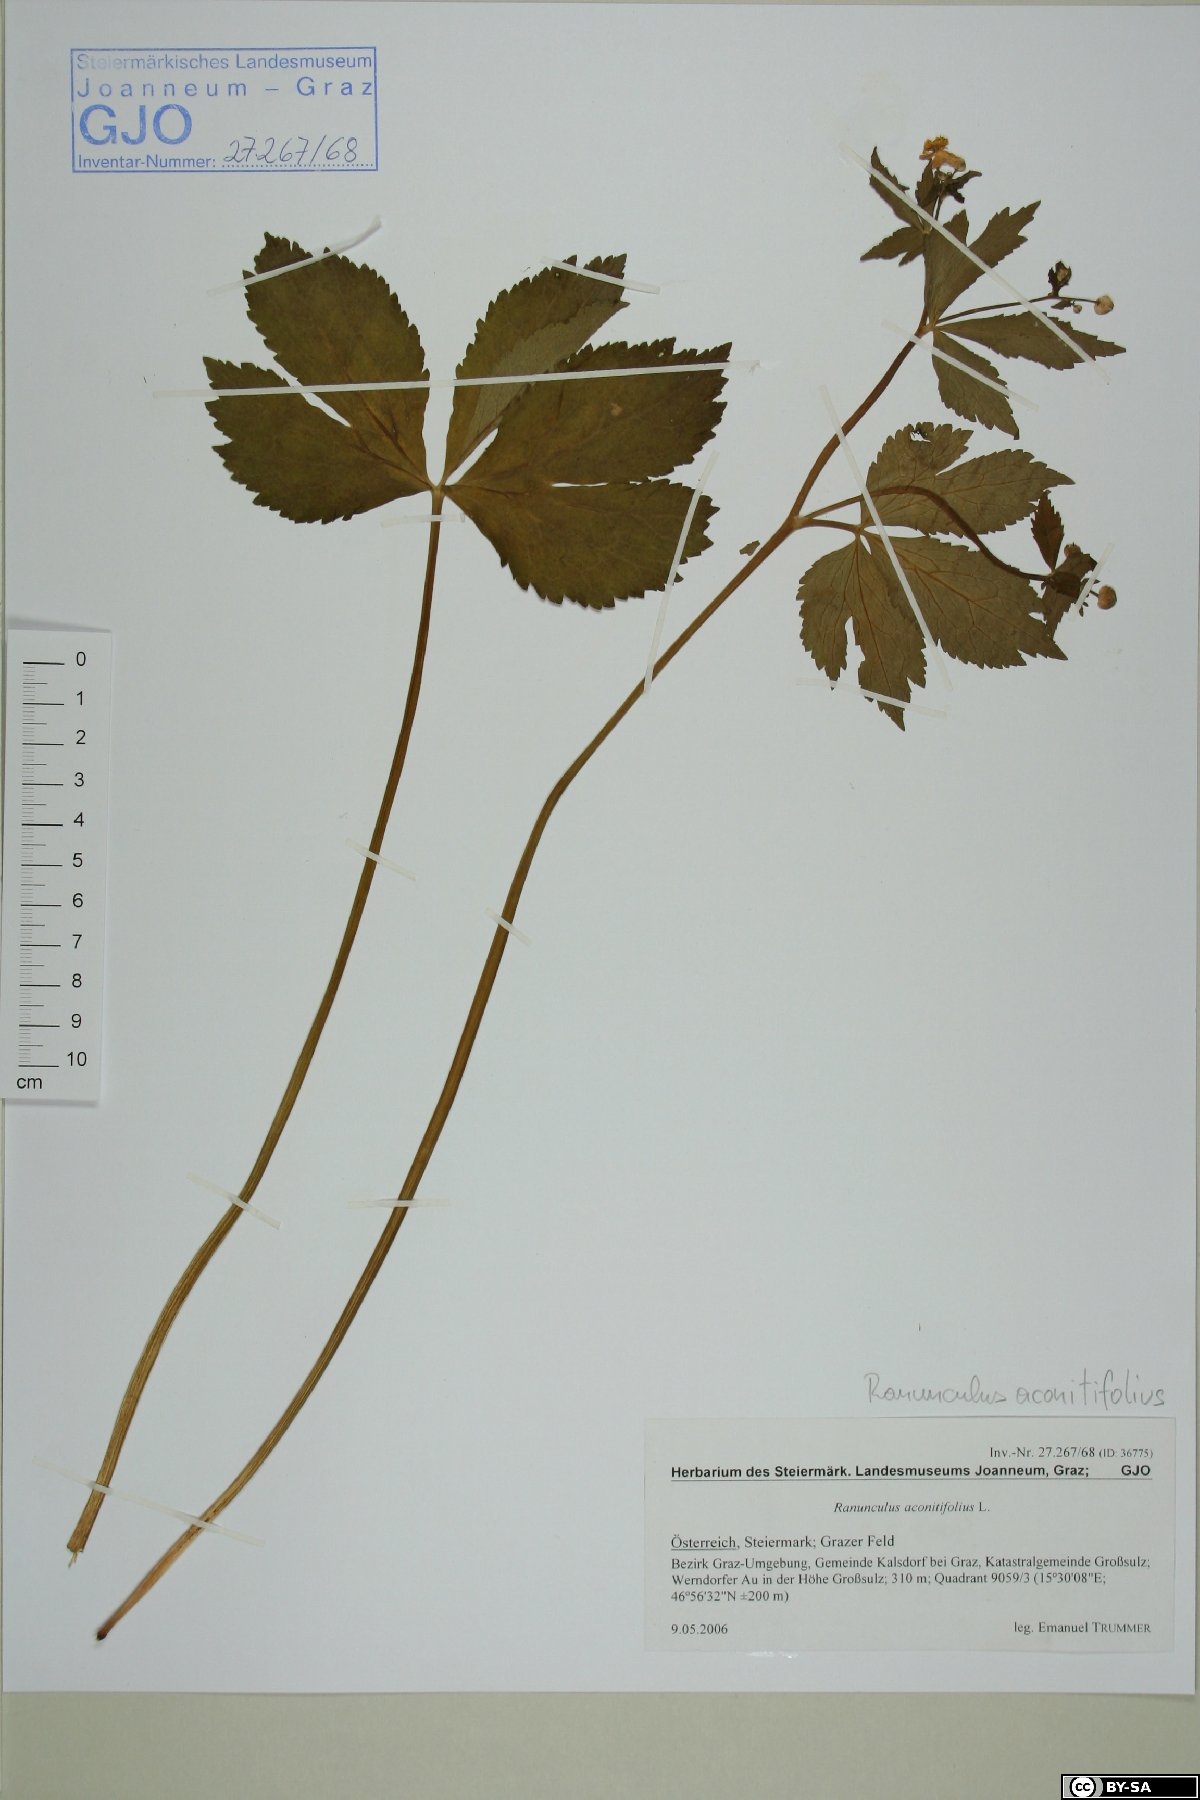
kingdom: Plantae
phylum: Tracheophyta
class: Magnoliopsida
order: Ranunculales
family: Ranunculaceae
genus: Ranunculus
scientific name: Ranunculus aconitifolius
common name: Aconite-leaved buttercup
